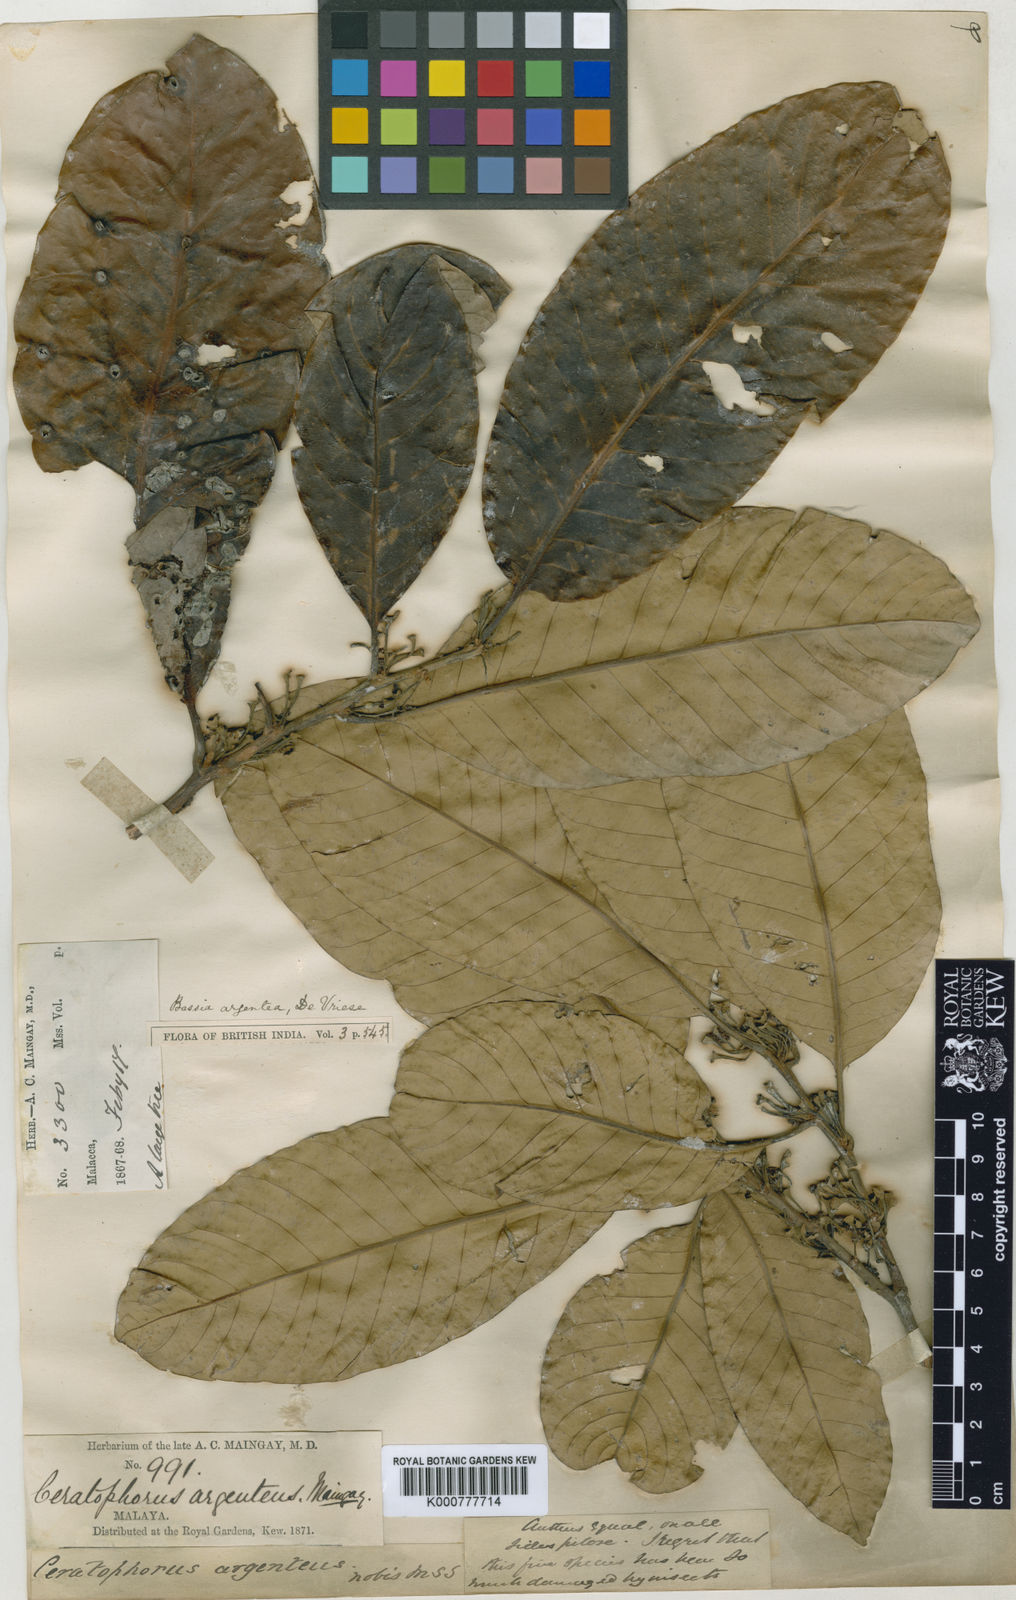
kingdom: Plantae
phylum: Tracheophyta
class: Magnoliopsida
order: Ericales
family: Sapotaceae
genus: Madhuca
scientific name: Madhuca sericea
